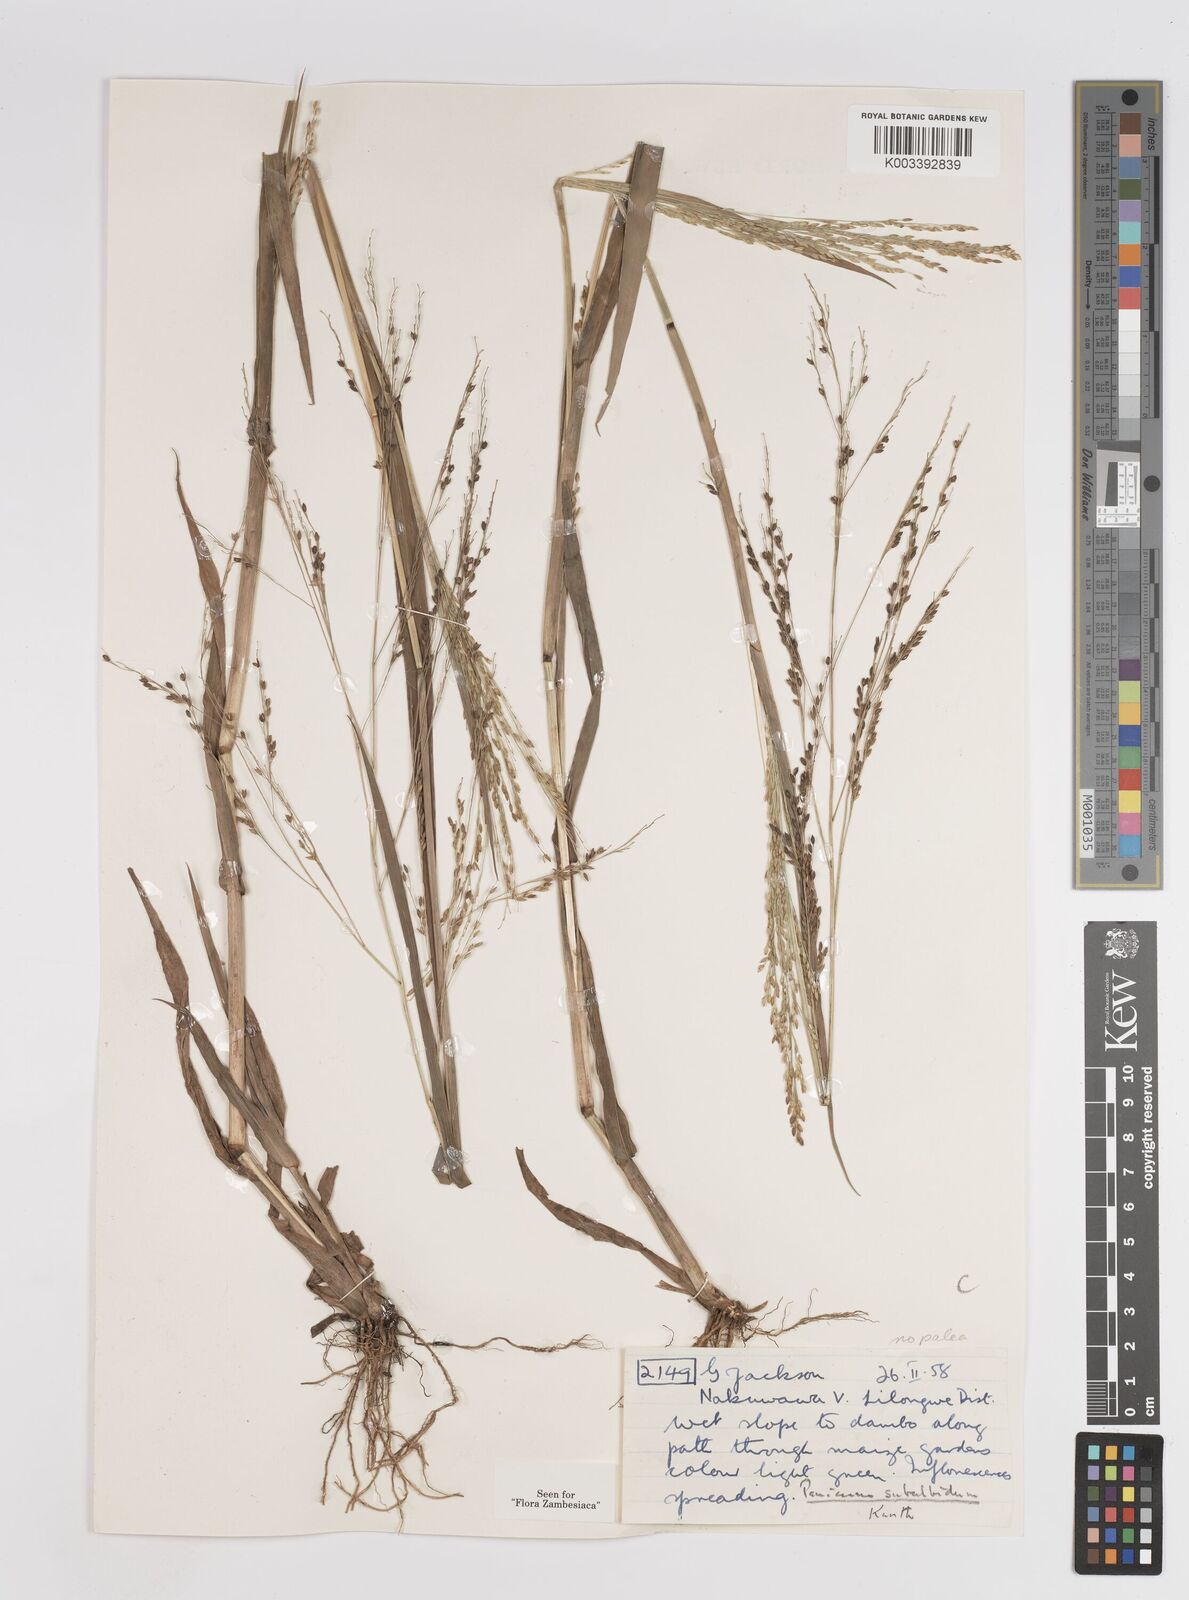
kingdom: Plantae
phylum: Tracheophyta
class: Liliopsida
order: Poales
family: Poaceae
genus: Panicum
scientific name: Panicum subalbidum
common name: Elbow buffalo grass
